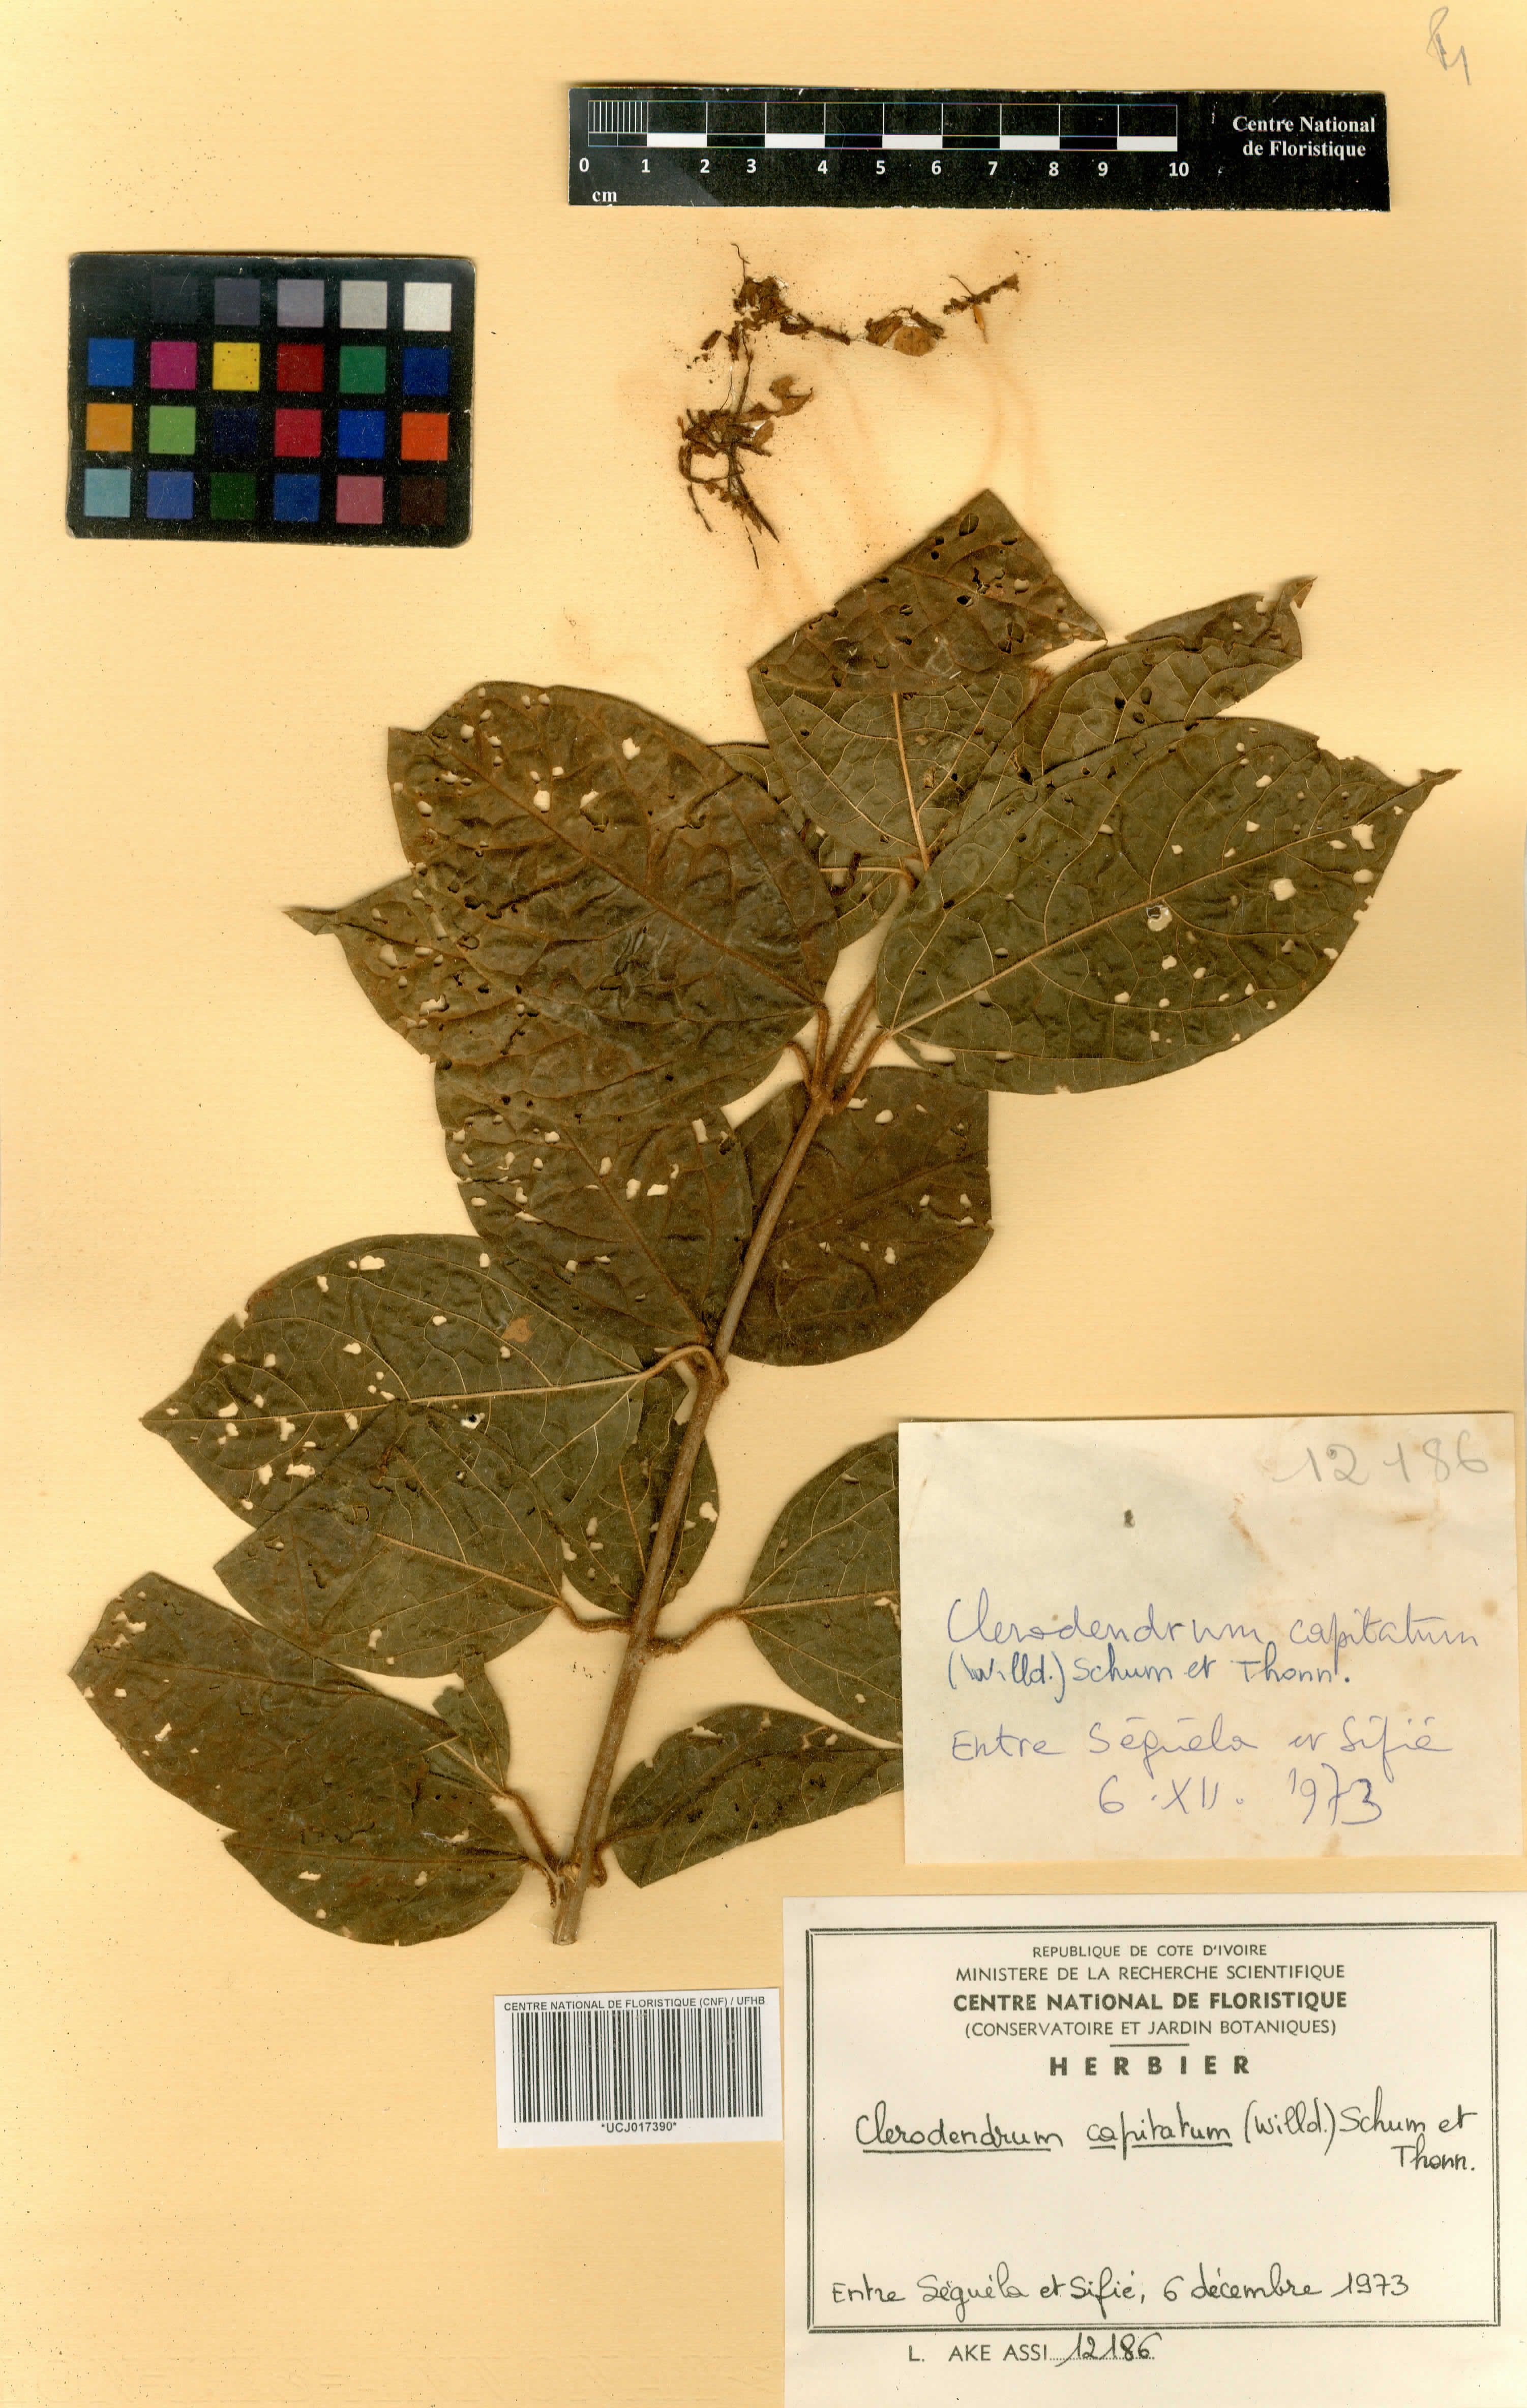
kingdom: Plantae
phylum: Tracheophyta
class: Magnoliopsida
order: Lamiales
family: Lamiaceae
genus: Clerodendrum
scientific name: Clerodendrum capitatum
